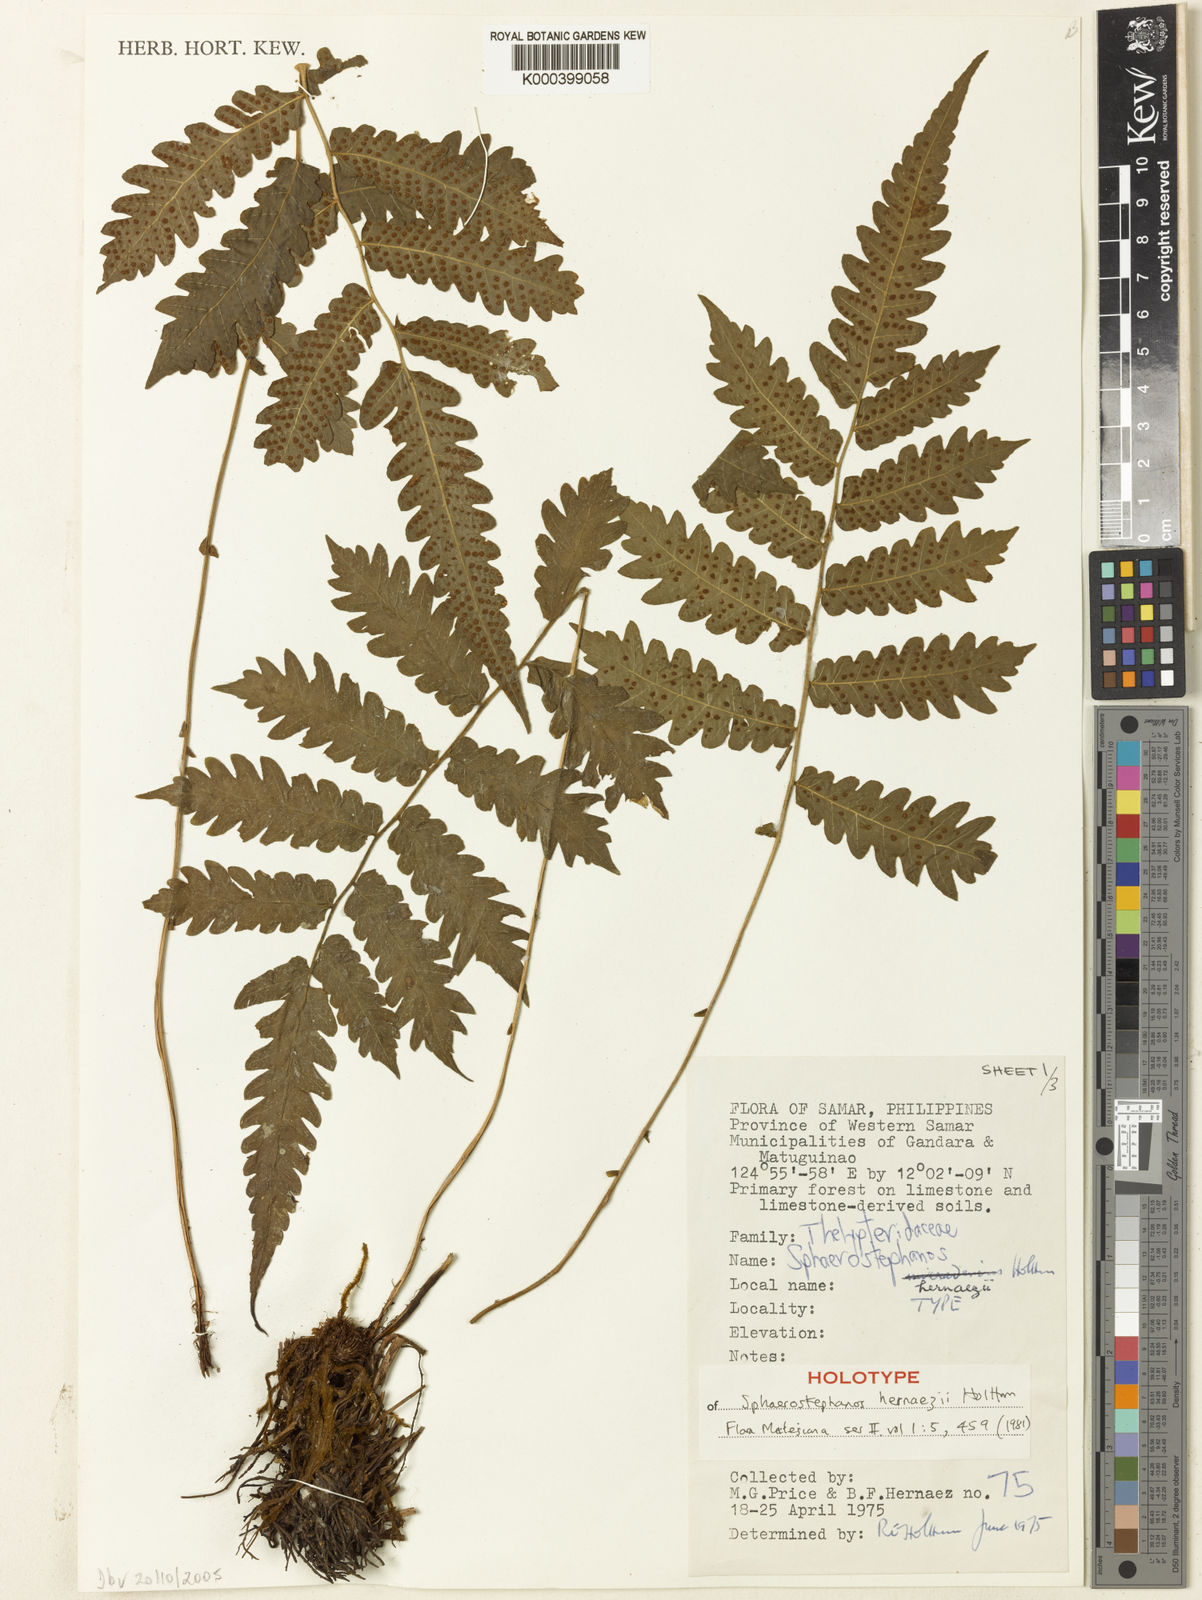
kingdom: Plantae
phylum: Tracheophyta
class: Polypodiopsida
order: Polypodiales
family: Thelypteridaceae
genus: Sphaerostephanos
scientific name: Sphaerostephanos hernaezii
